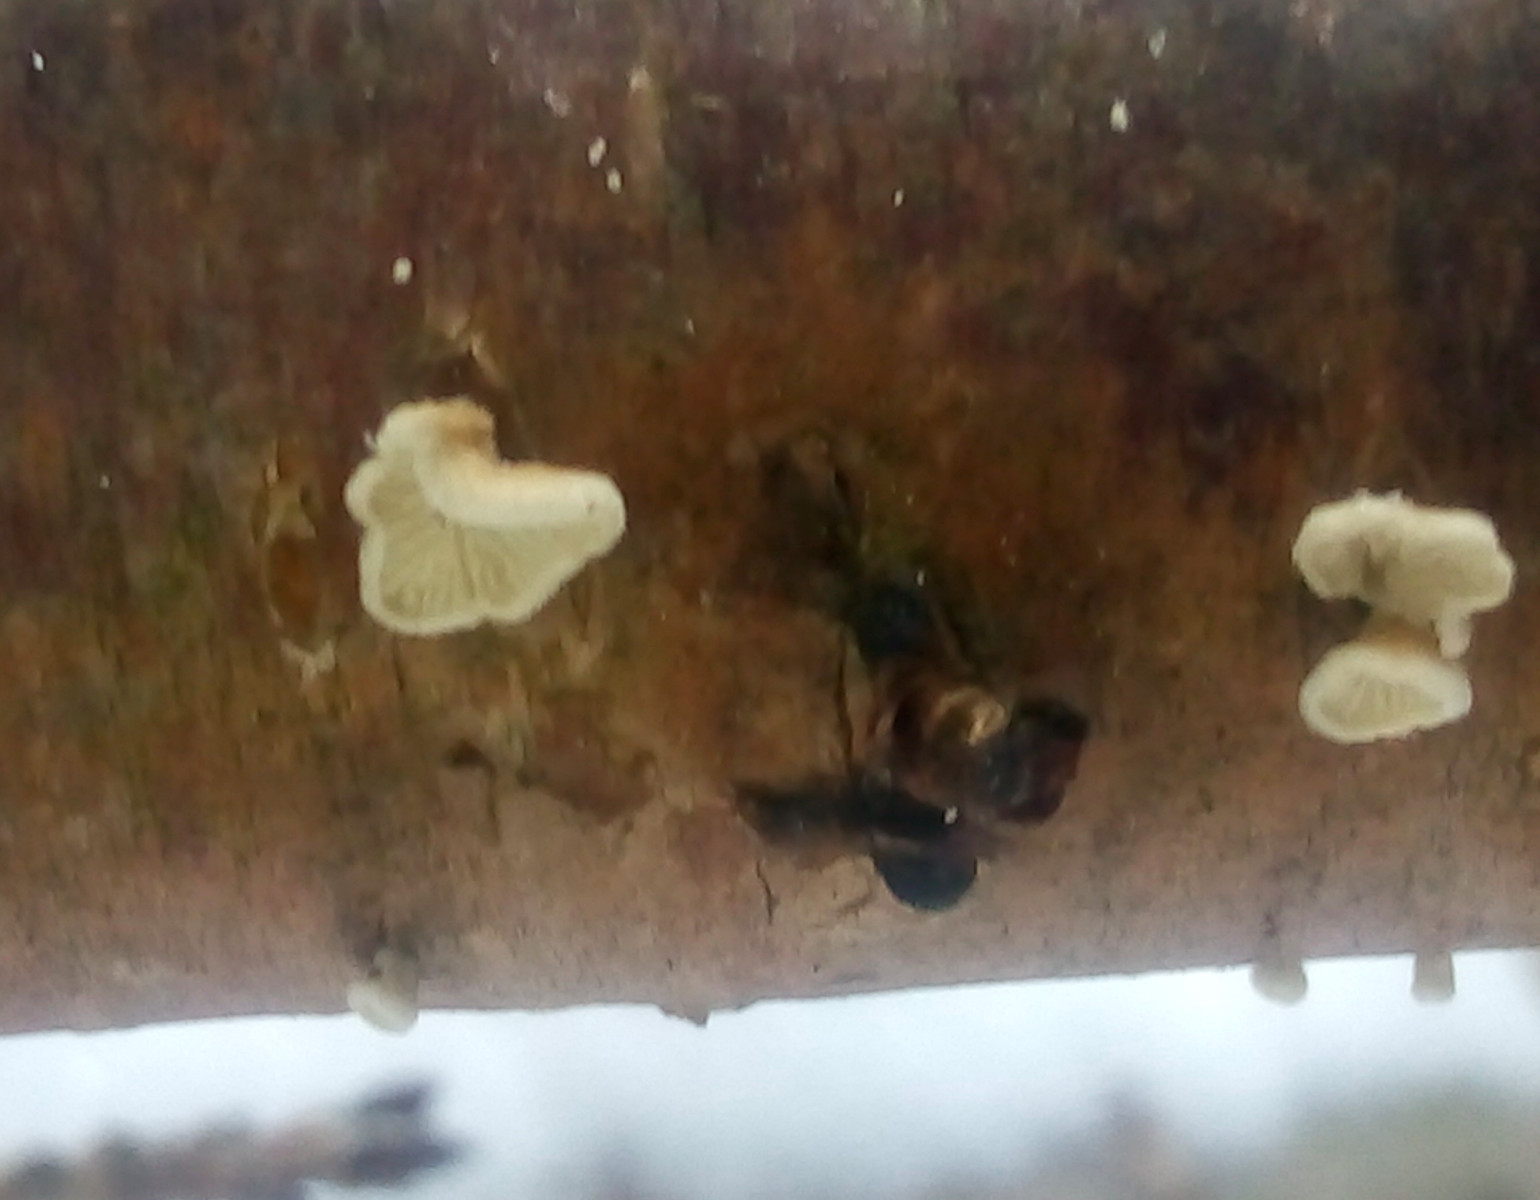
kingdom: Fungi
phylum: Basidiomycota
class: Agaricomycetes
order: Amylocorticiales
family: Amylocorticiaceae
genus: Plicaturopsis
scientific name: Plicaturopsis crispa
